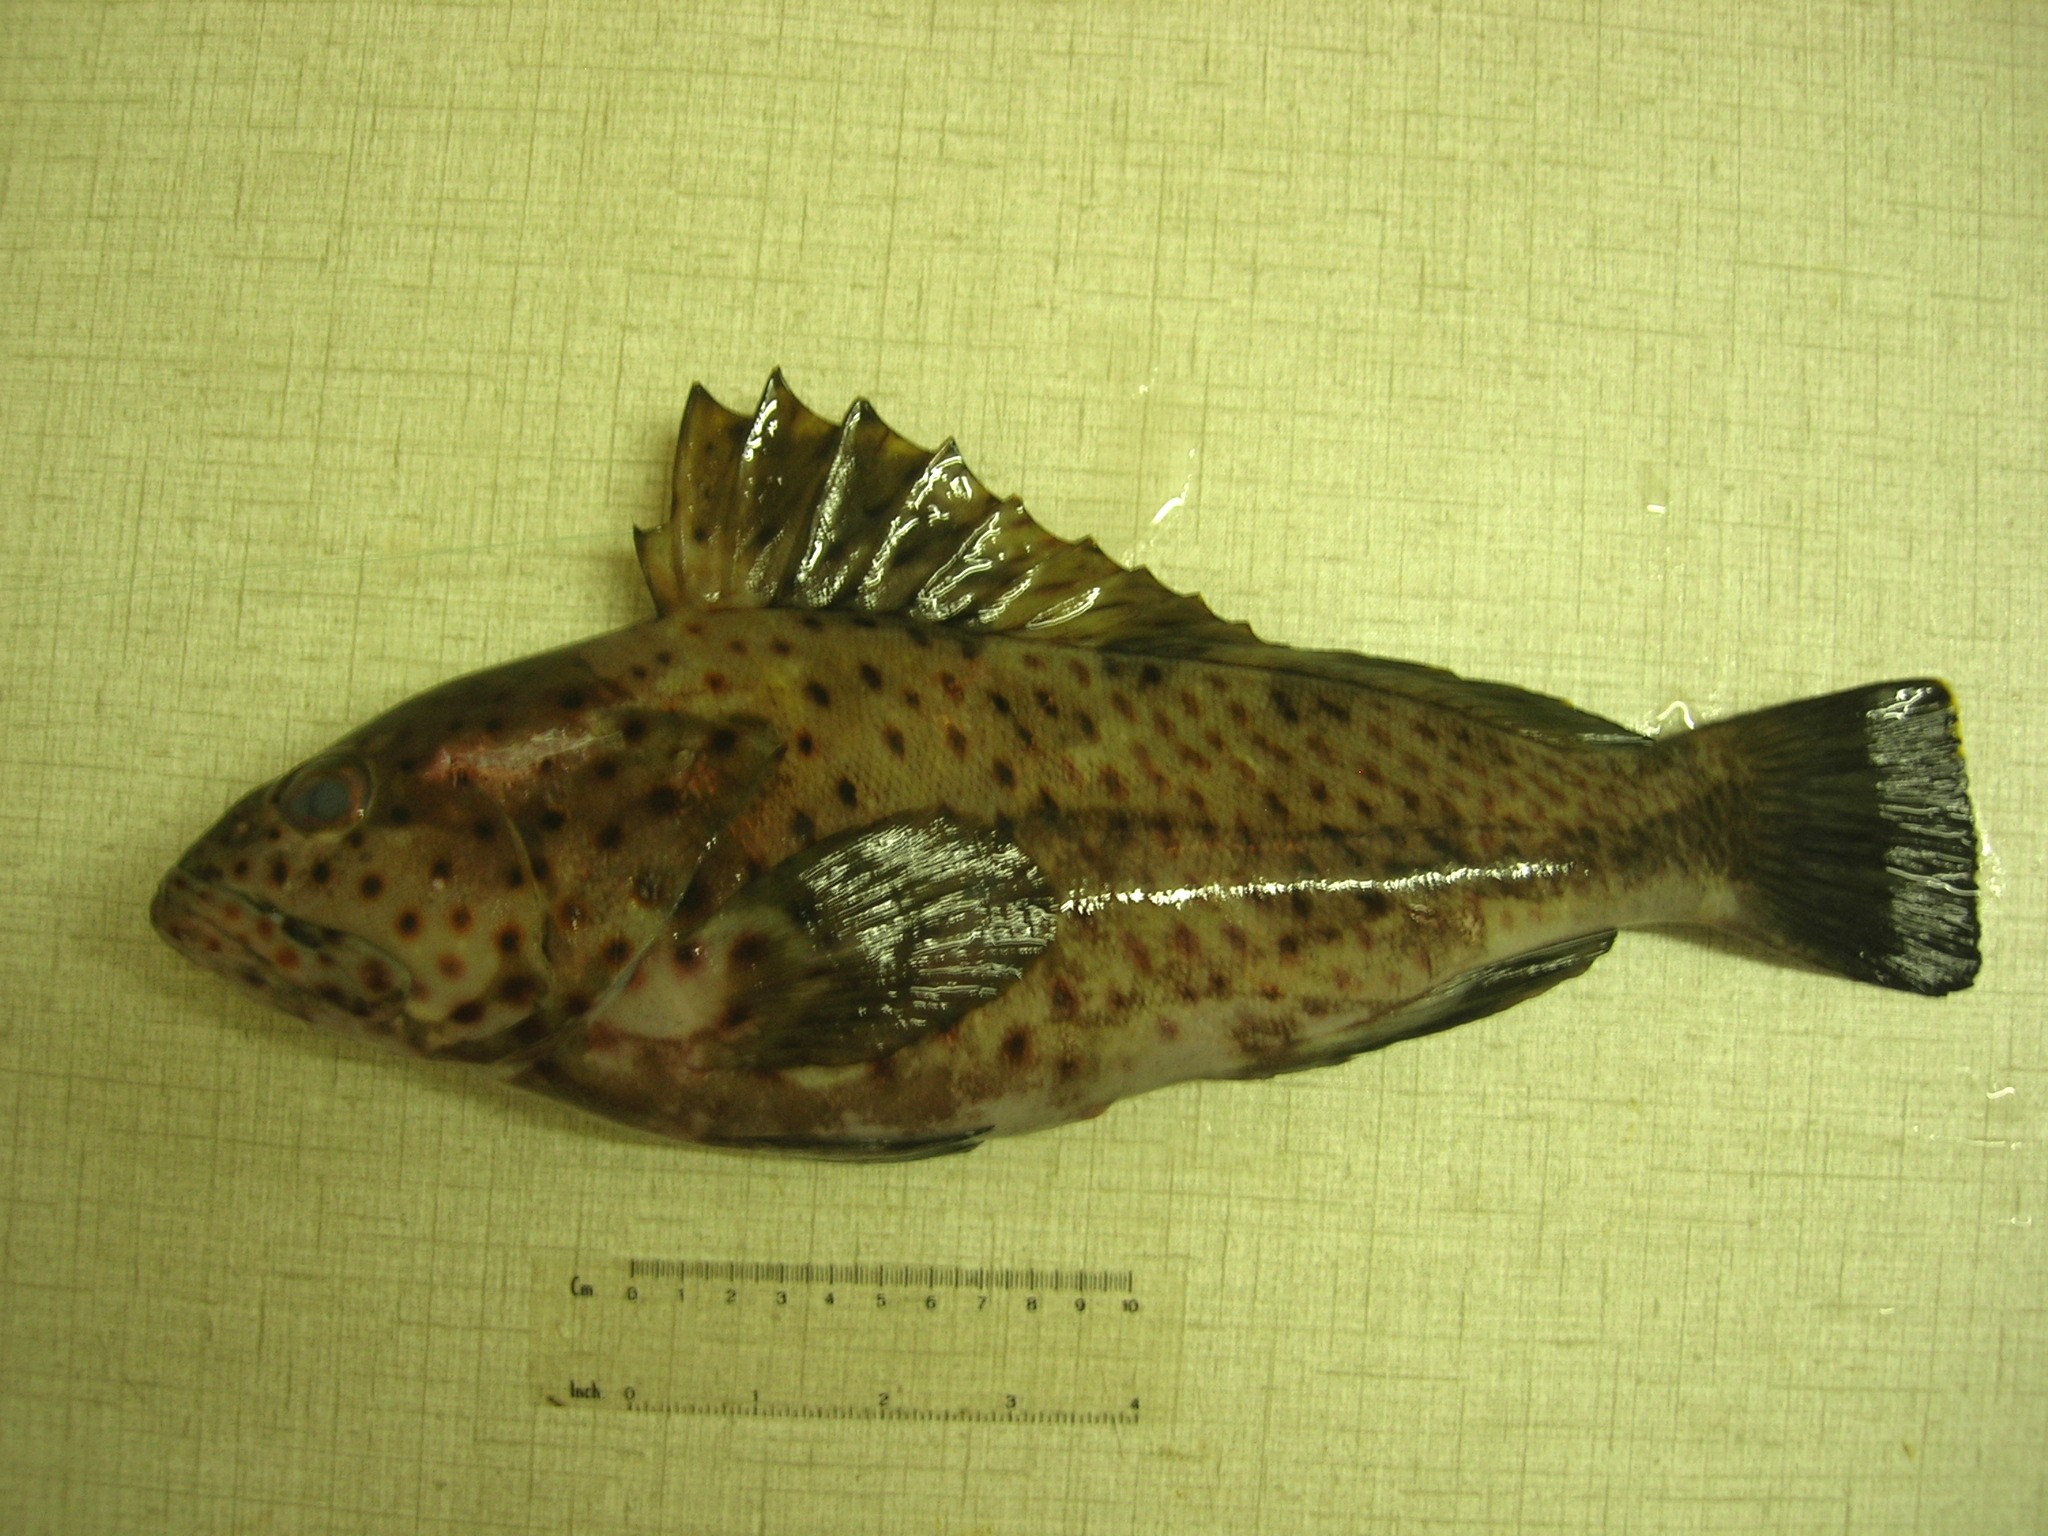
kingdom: Animalia
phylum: Chordata
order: Perciformes
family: Serranidae
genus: Epinephelus
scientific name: Epinephelus longispinis
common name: Longspine grouper
